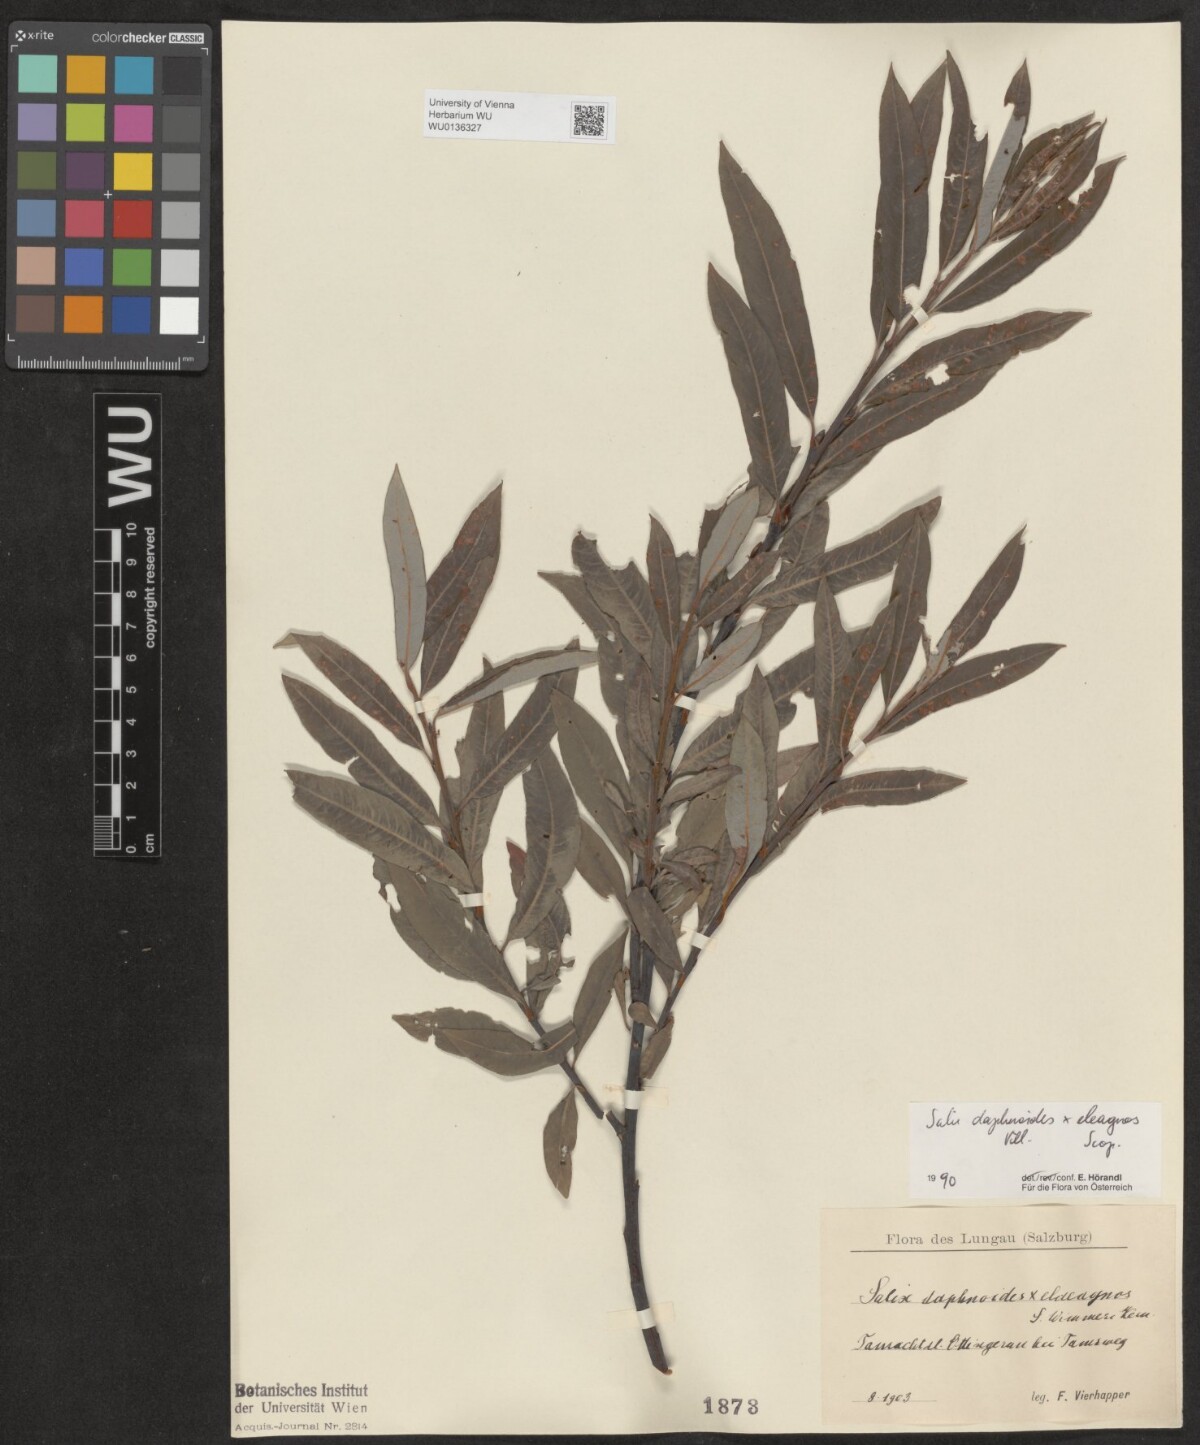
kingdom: Plantae
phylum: Tracheophyta
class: Magnoliopsida
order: Malpighiales
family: Salicaceae
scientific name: Salicaceae
